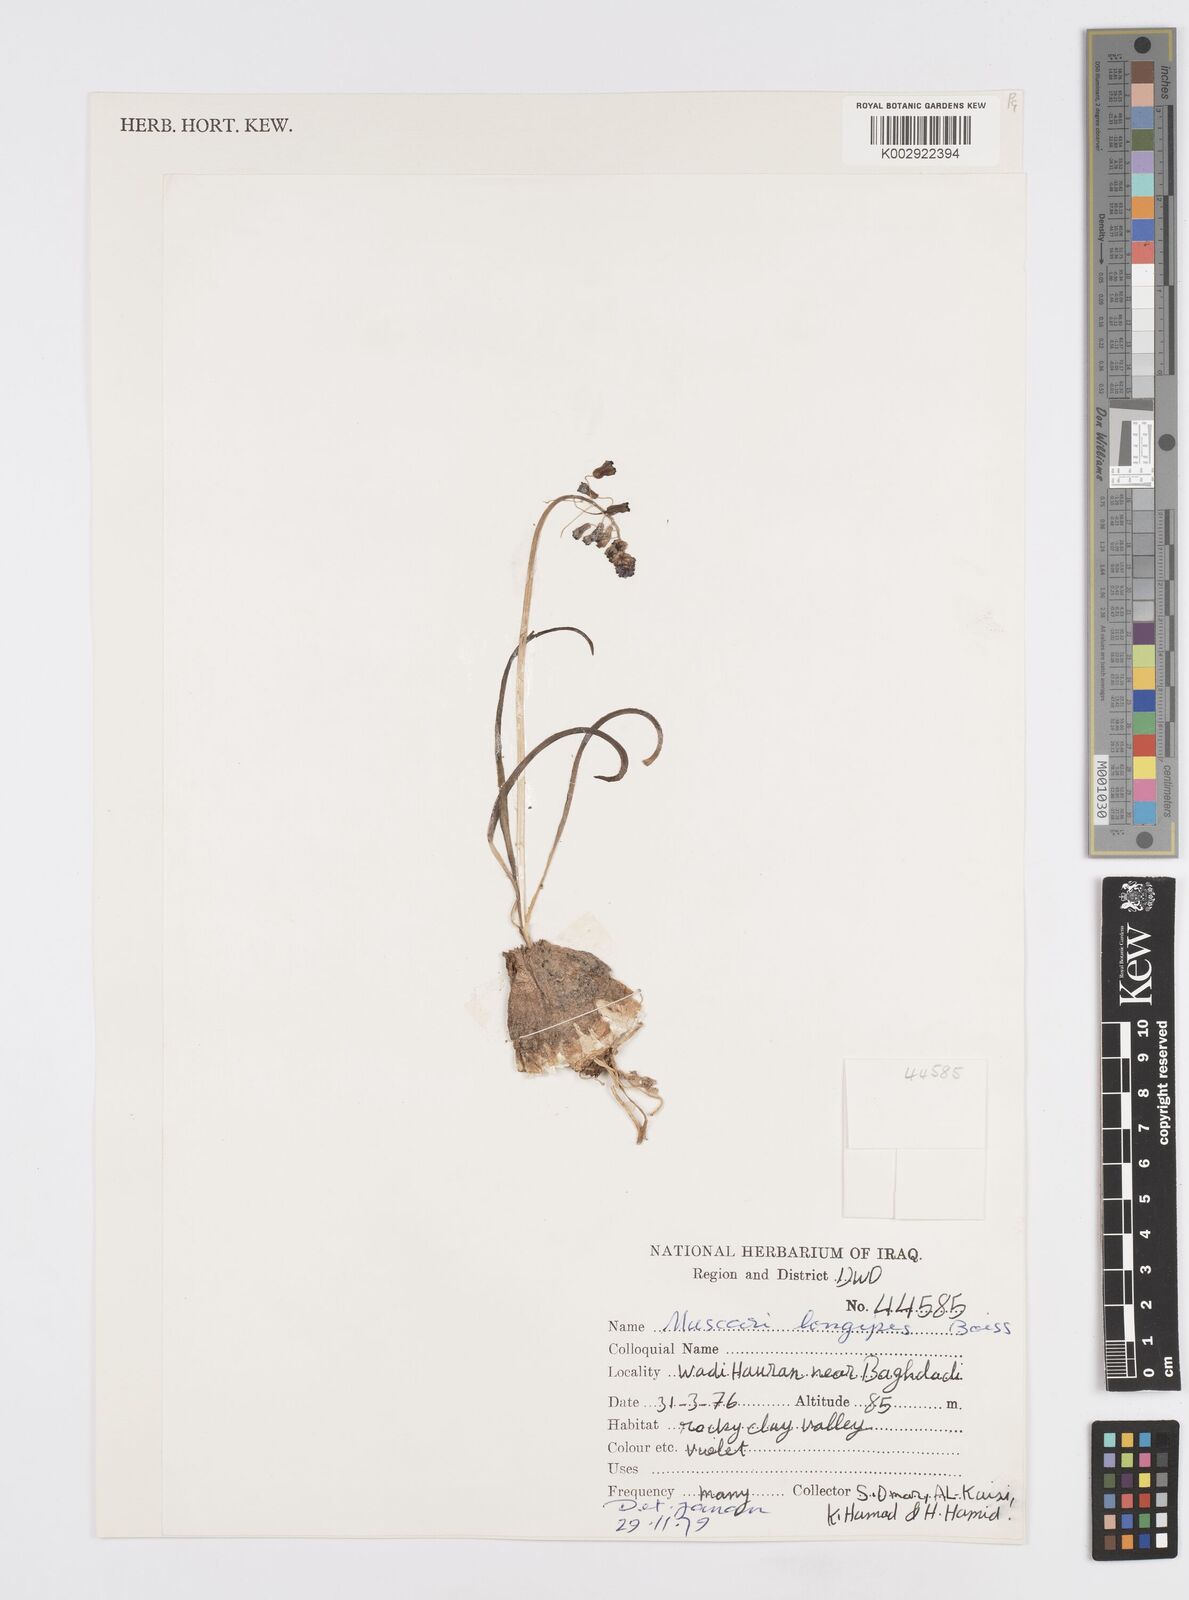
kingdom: Plantae
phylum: Tracheophyta
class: Liliopsida
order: Asparagales
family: Asparagaceae
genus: Muscari
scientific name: Muscari longipes
